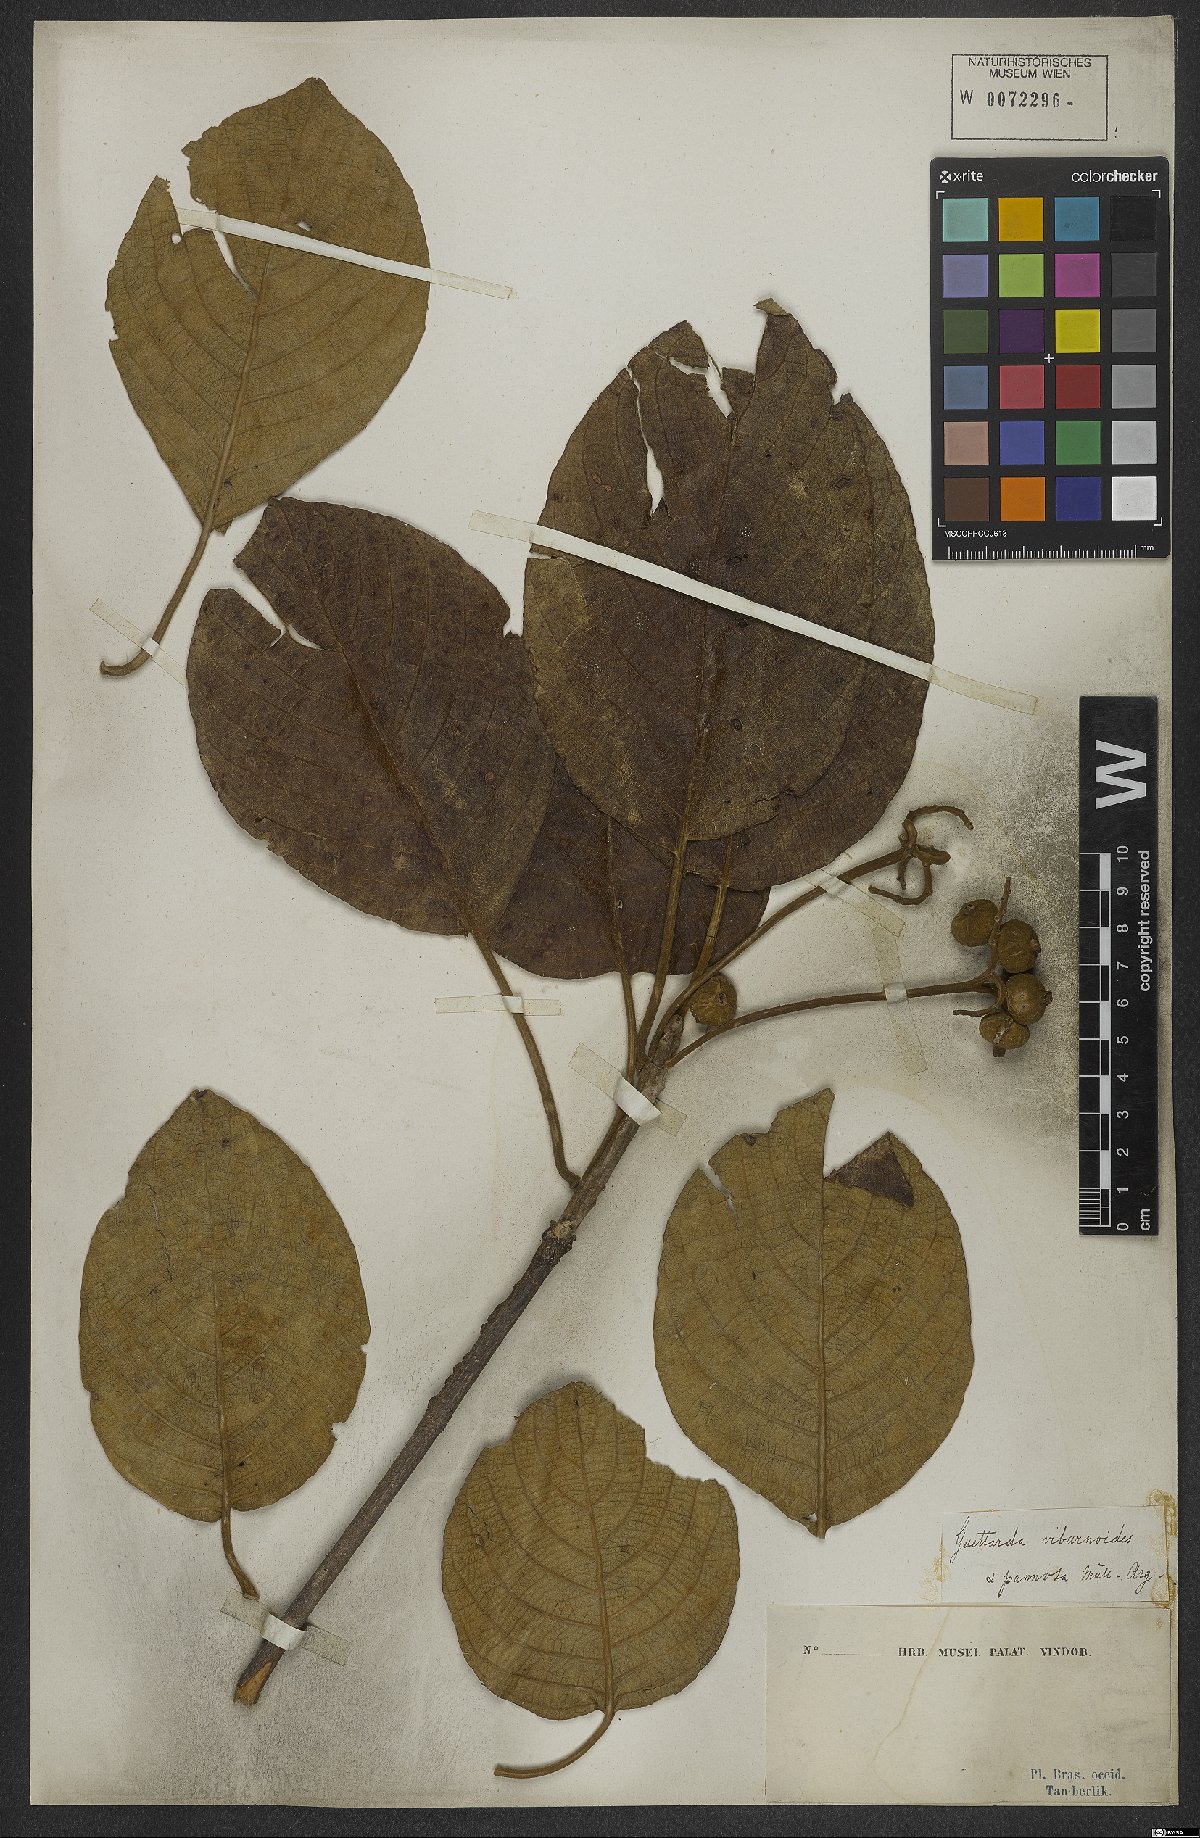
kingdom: Plantae
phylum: Tracheophyta
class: Magnoliopsida
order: Gentianales
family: Rubiaceae
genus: Guettarda
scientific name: Guettarda viburnoides
